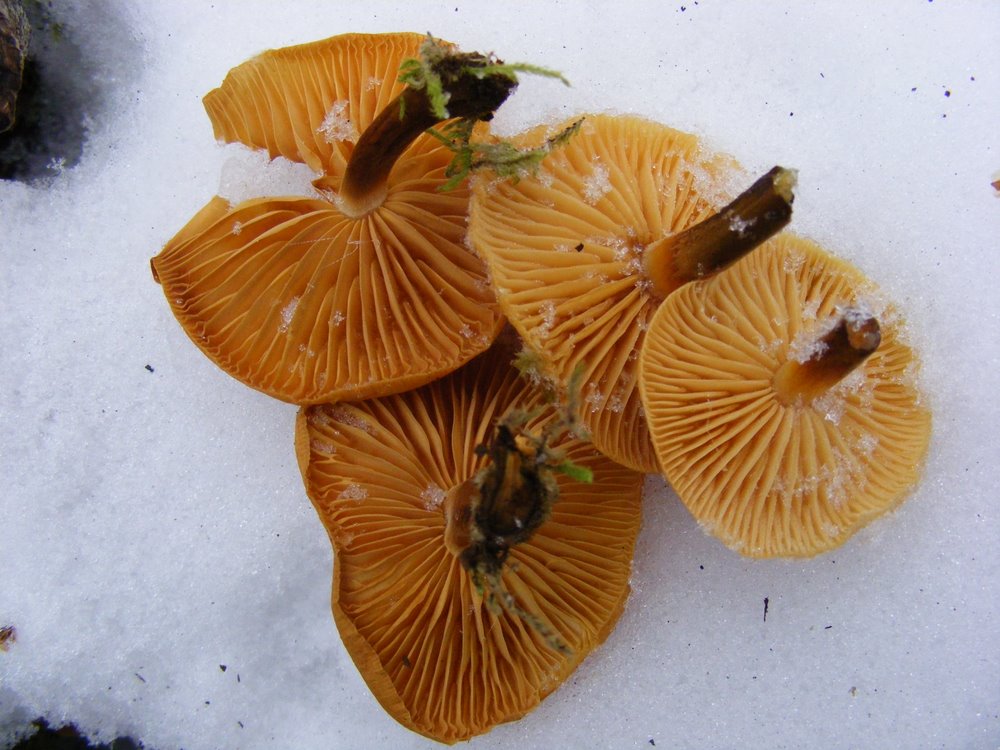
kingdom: Fungi
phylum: Basidiomycota
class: Agaricomycetes
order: Agaricales
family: Physalacriaceae
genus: Flammulina
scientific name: Flammulina elastica
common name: pile-fløjlsfod
